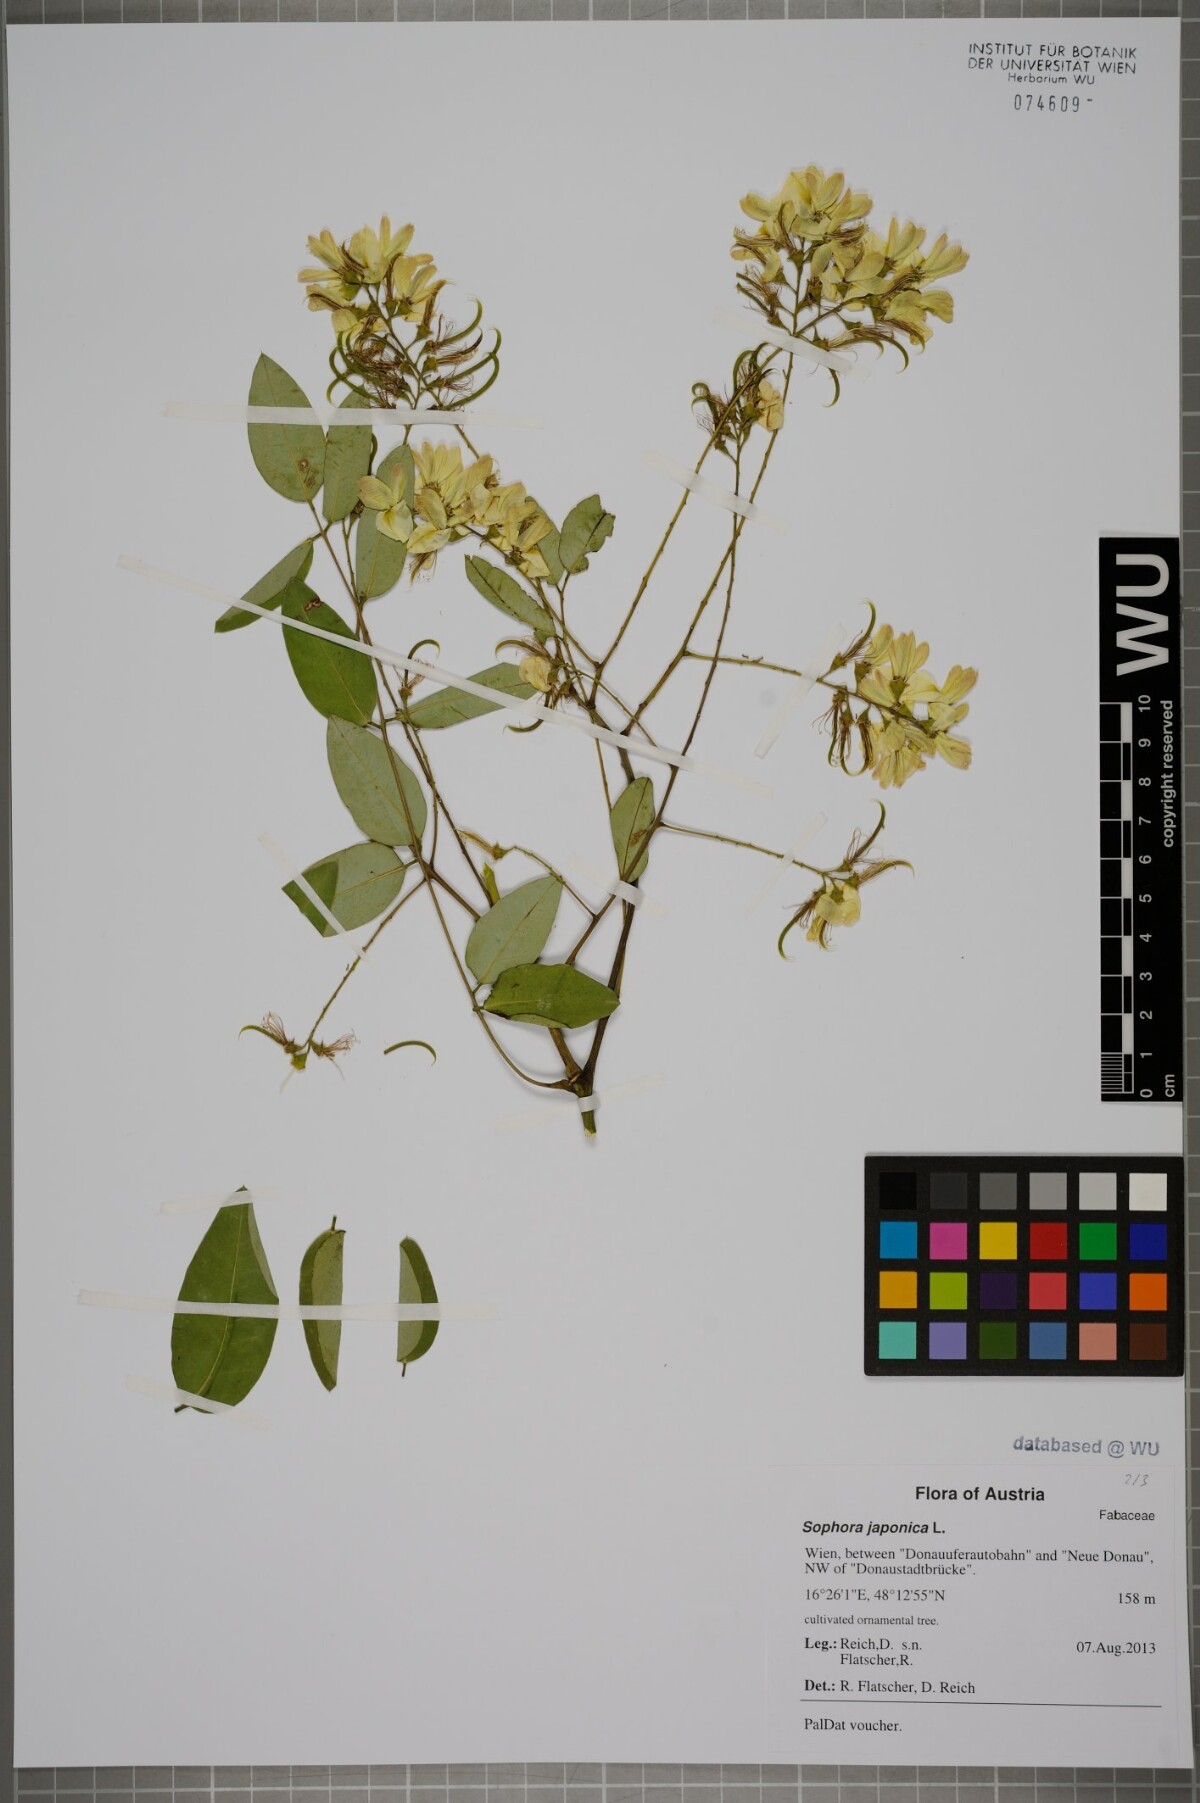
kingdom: Plantae
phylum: Tracheophyta
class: Magnoliopsida
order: Fabales
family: Fabaceae
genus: Styphnolobium
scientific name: Styphnolobium japonicum
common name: Chinese scholartree
